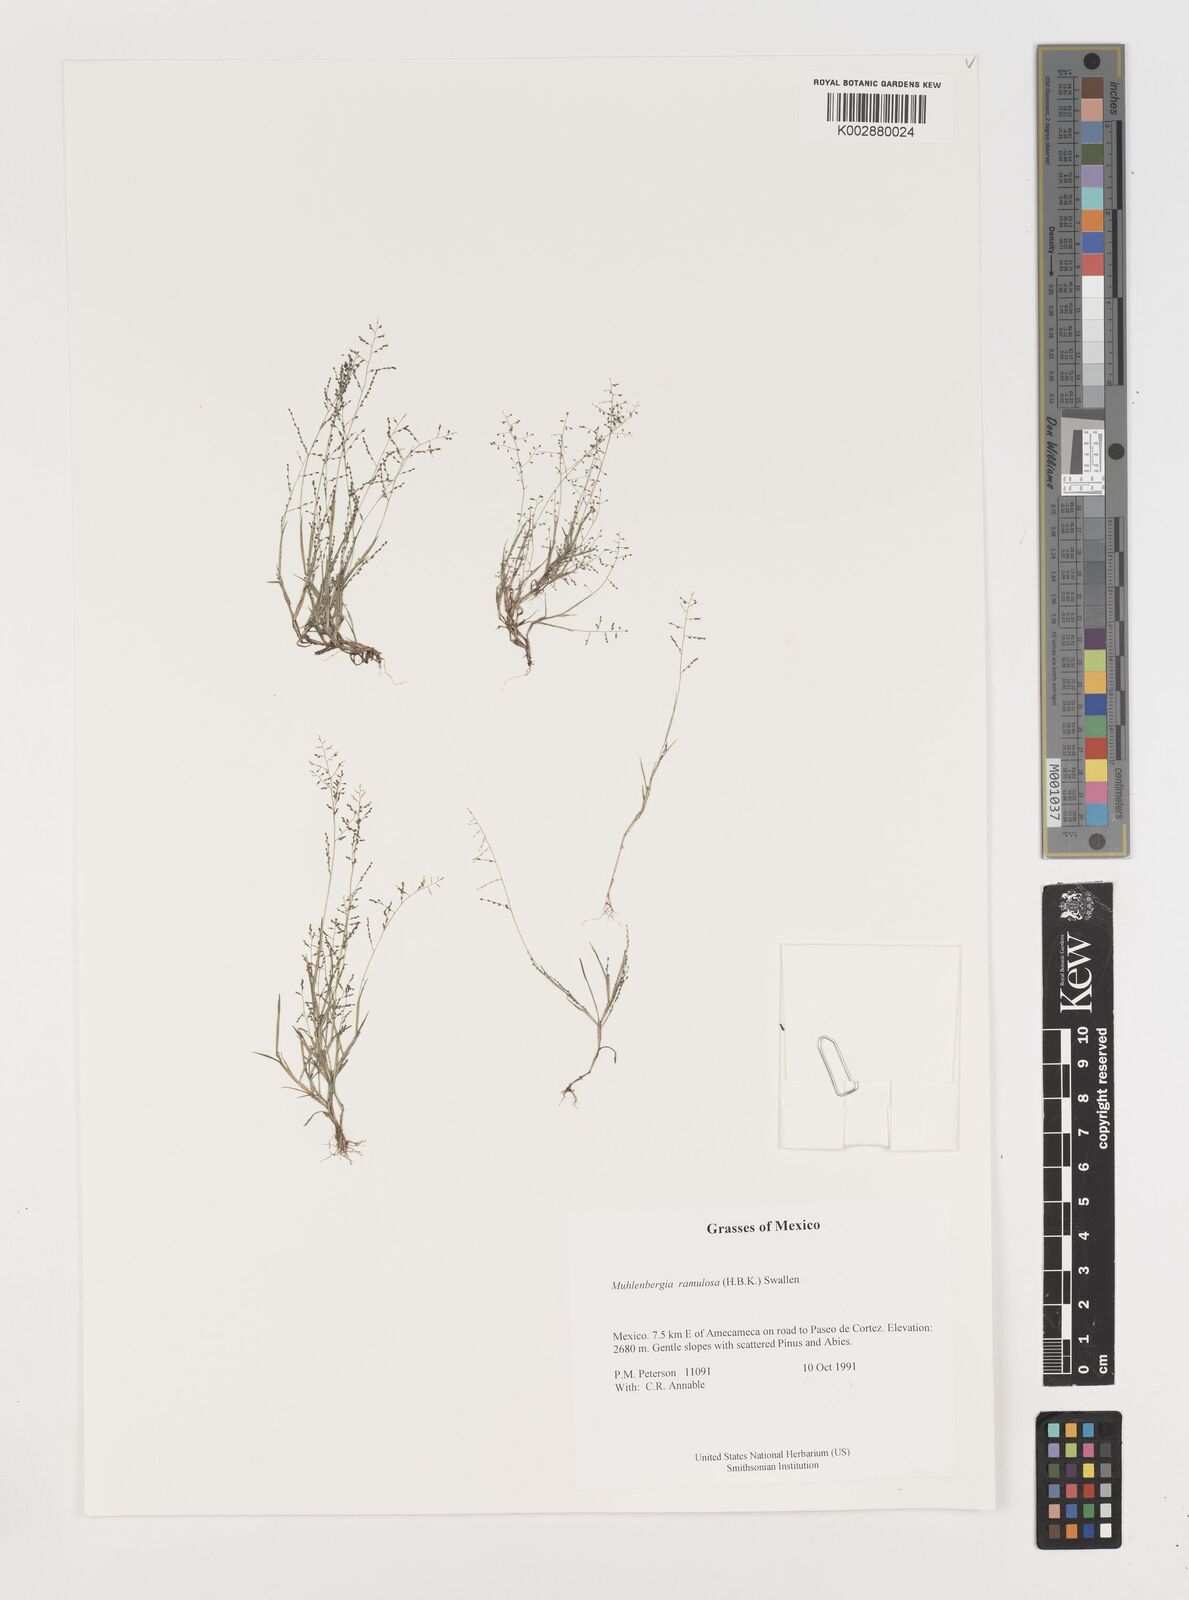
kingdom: Plantae
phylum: Tracheophyta
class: Liliopsida
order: Poales
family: Poaceae
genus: Muhlenbergia
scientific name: Muhlenbergia ramulosa
